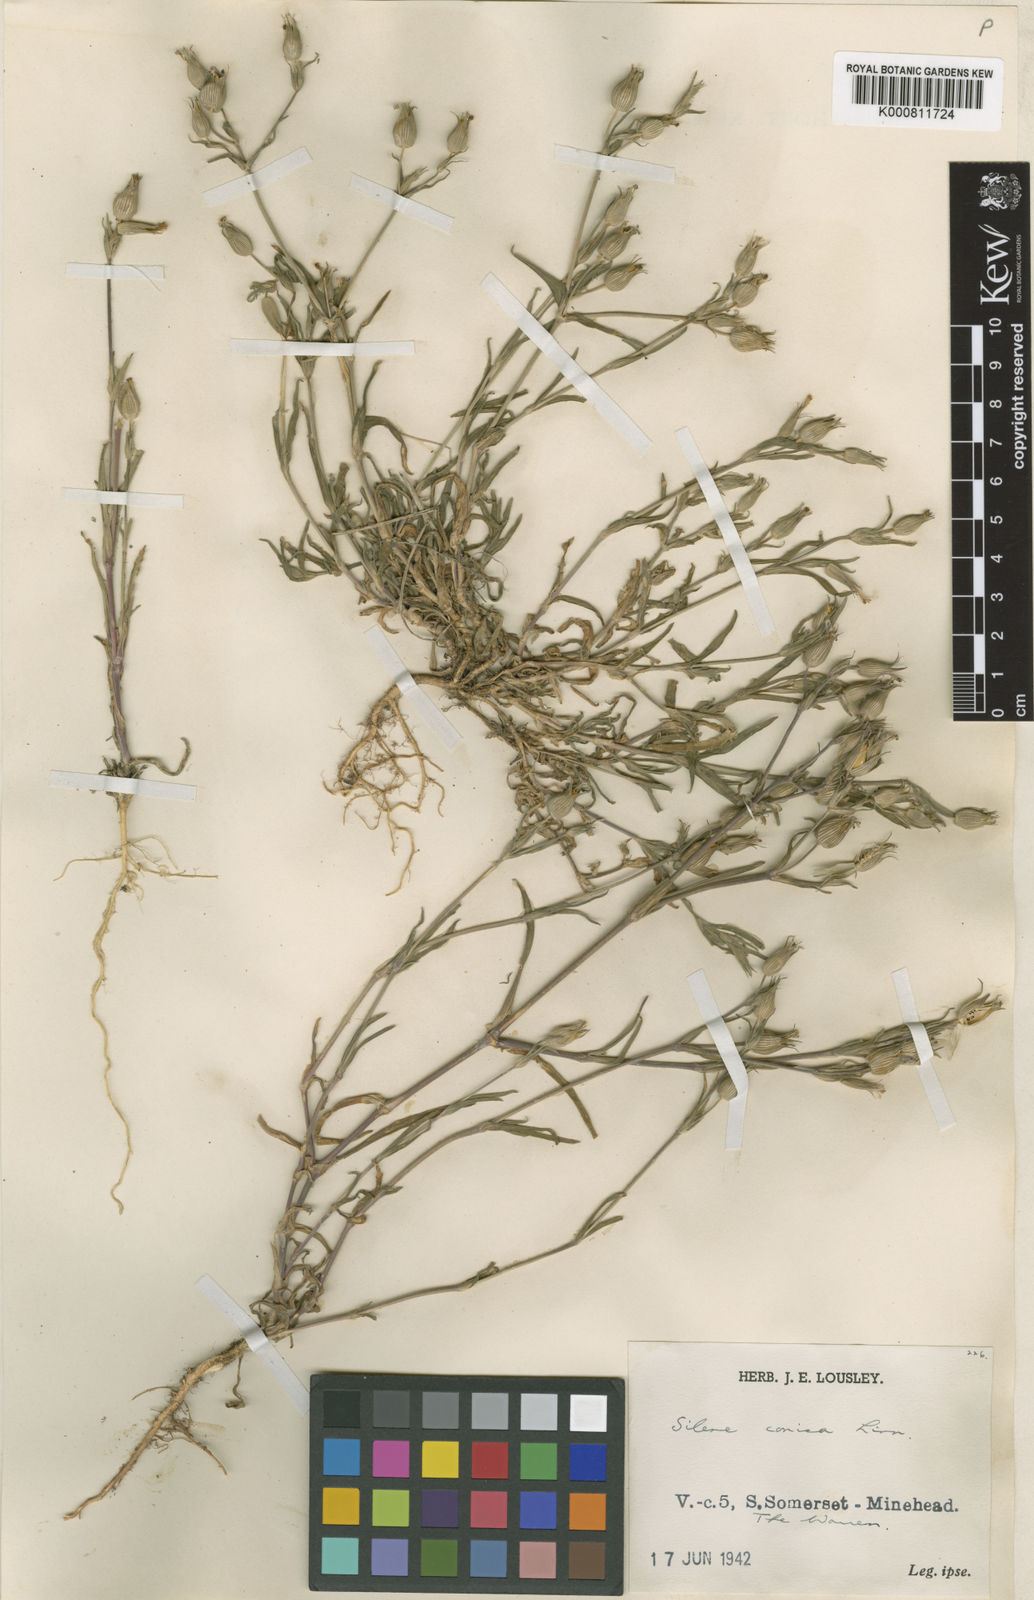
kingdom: Plantae
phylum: Tracheophyta
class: Magnoliopsida
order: Caryophyllales
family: Caryophyllaceae
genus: Silene
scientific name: Silene conica
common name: Sand catchfly
